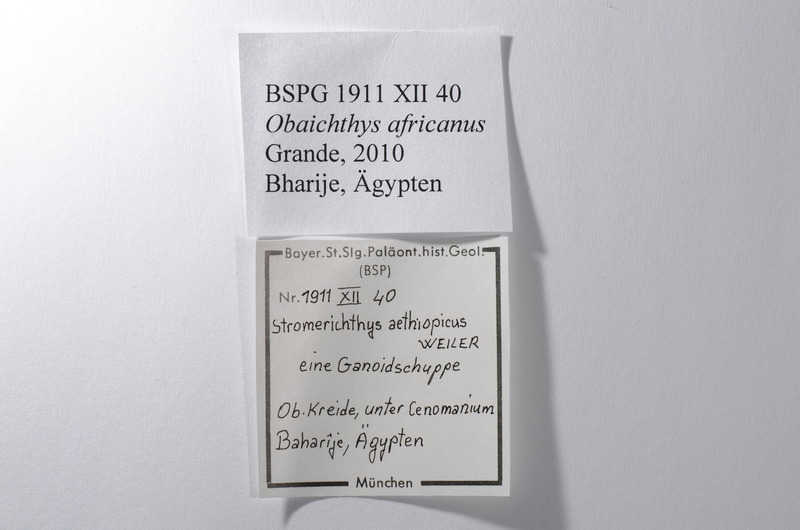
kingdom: Animalia
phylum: Chordata
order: Lepisosteiformes
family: Lepisosteidae
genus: Obaichthys
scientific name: Obaichthys
